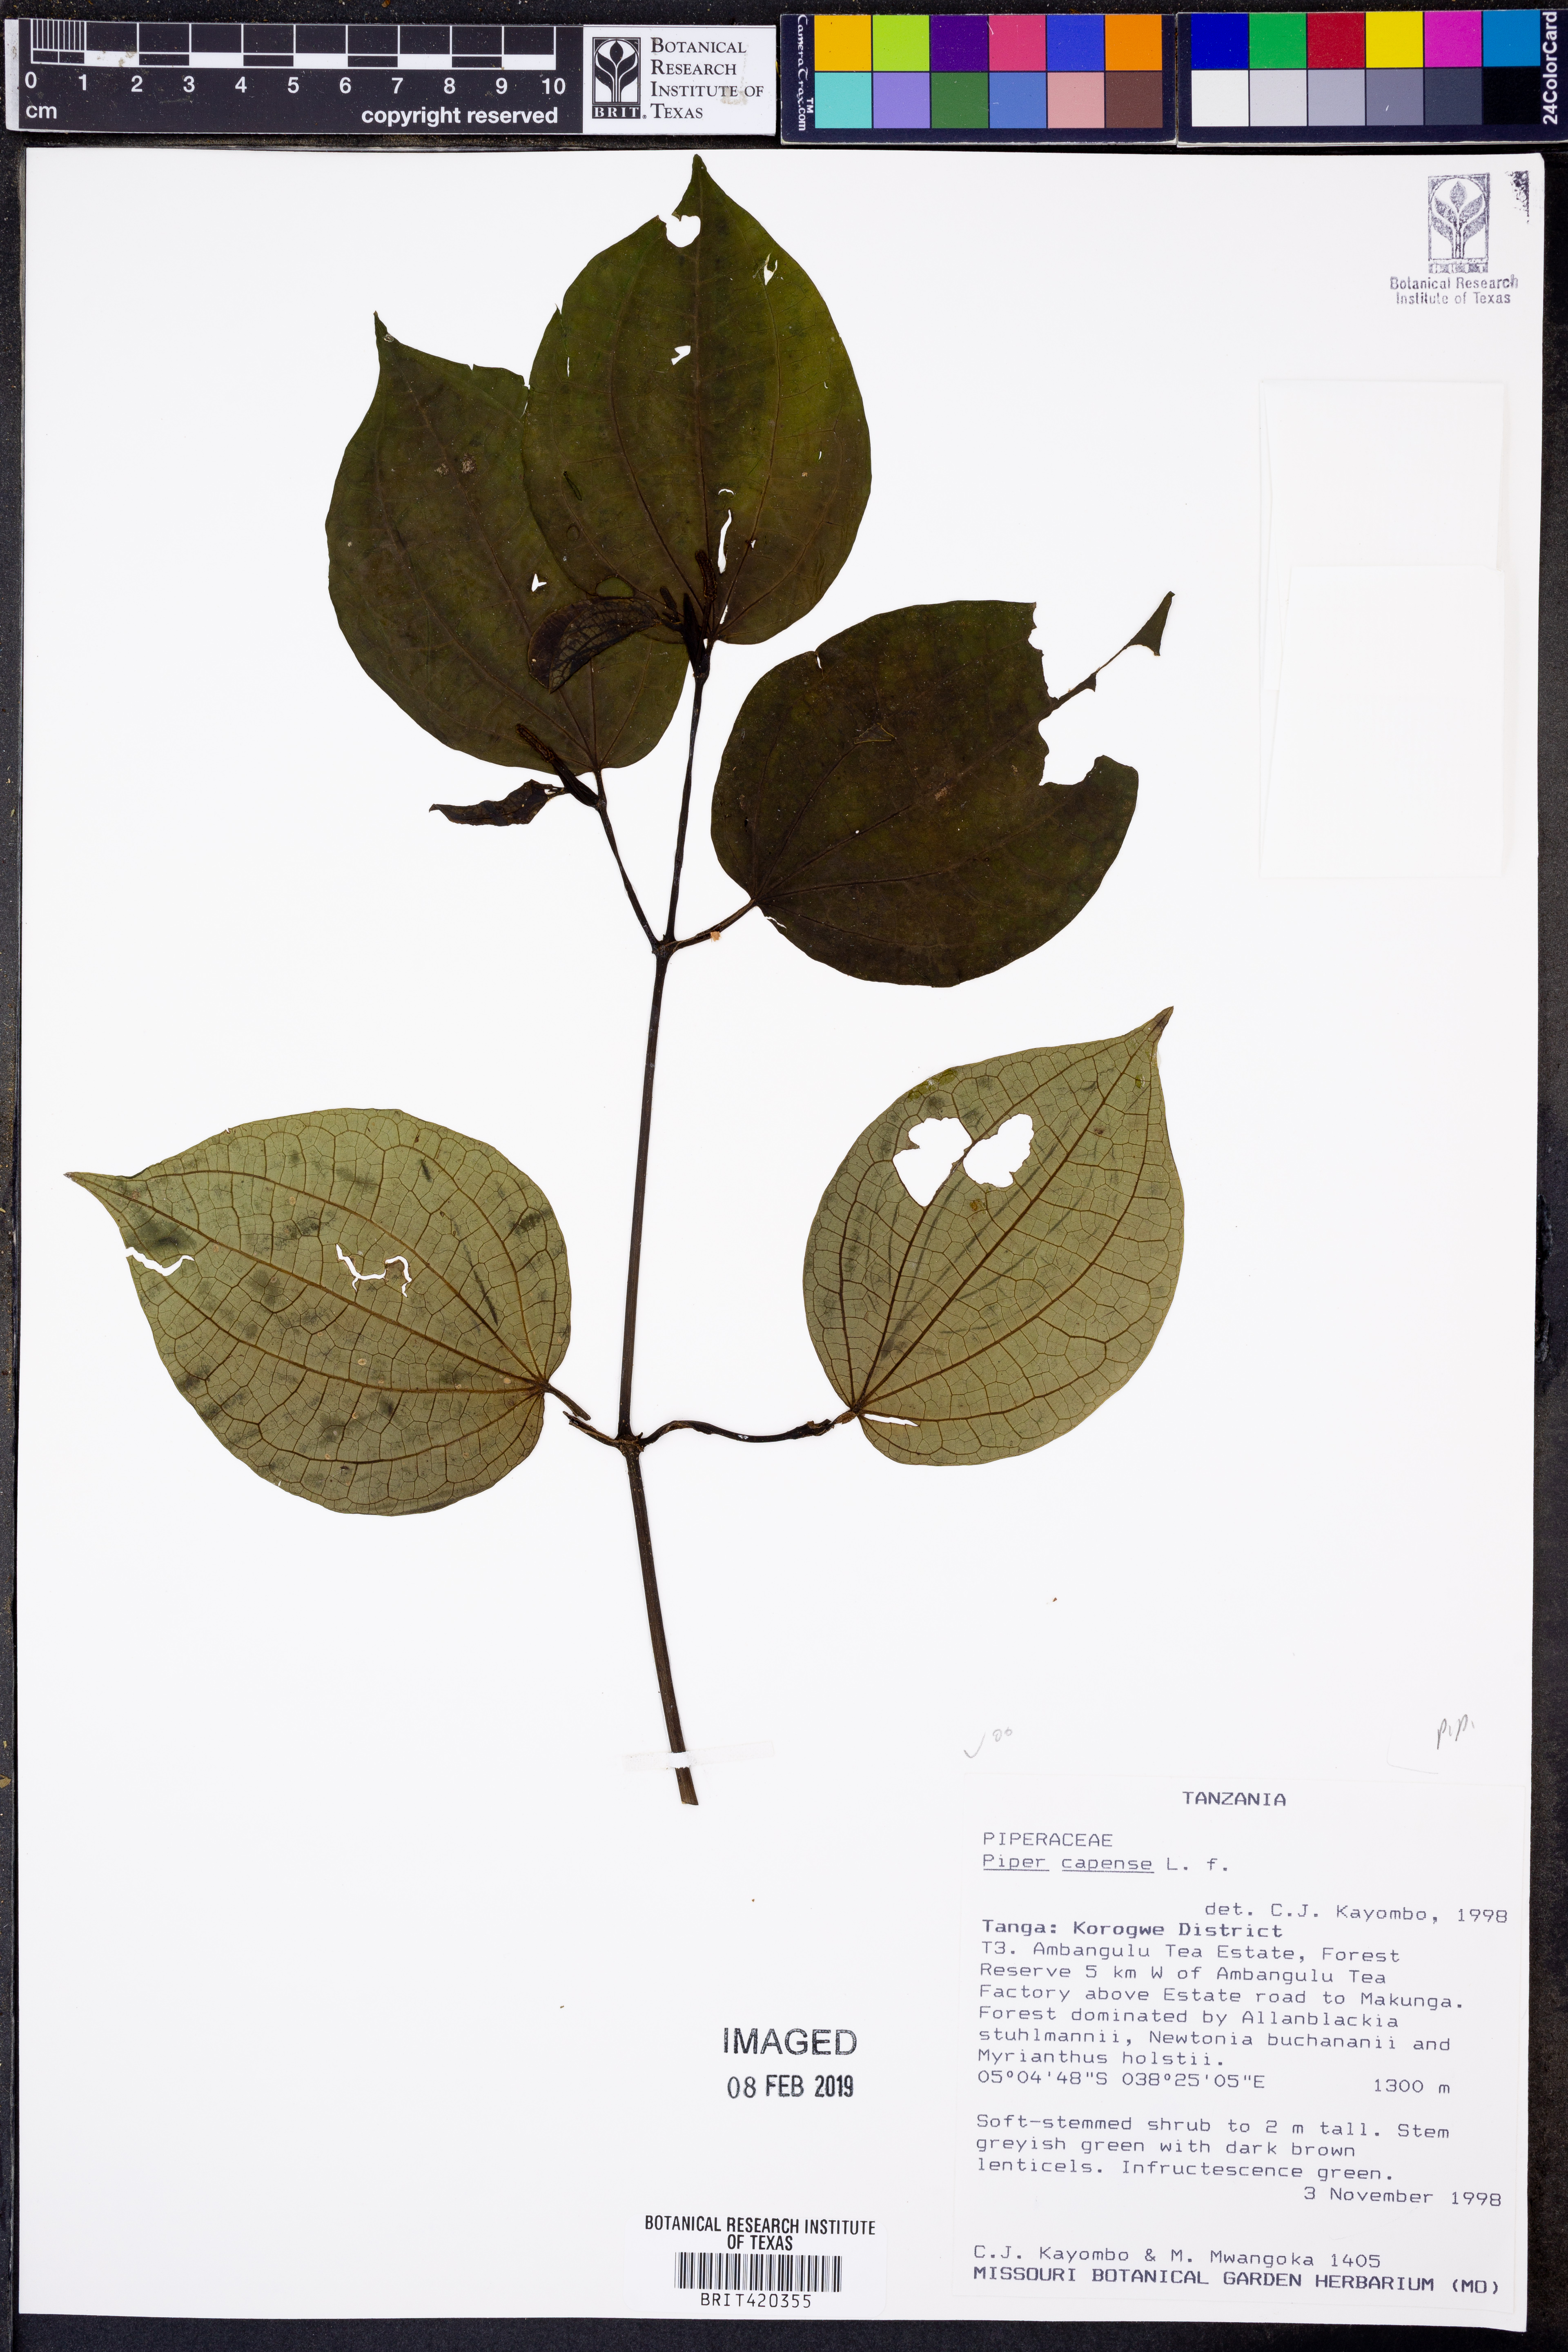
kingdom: Plantae
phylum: Tracheophyta
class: Magnoliopsida
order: Piperales
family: Piperaceae
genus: Piper
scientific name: Piper capense
